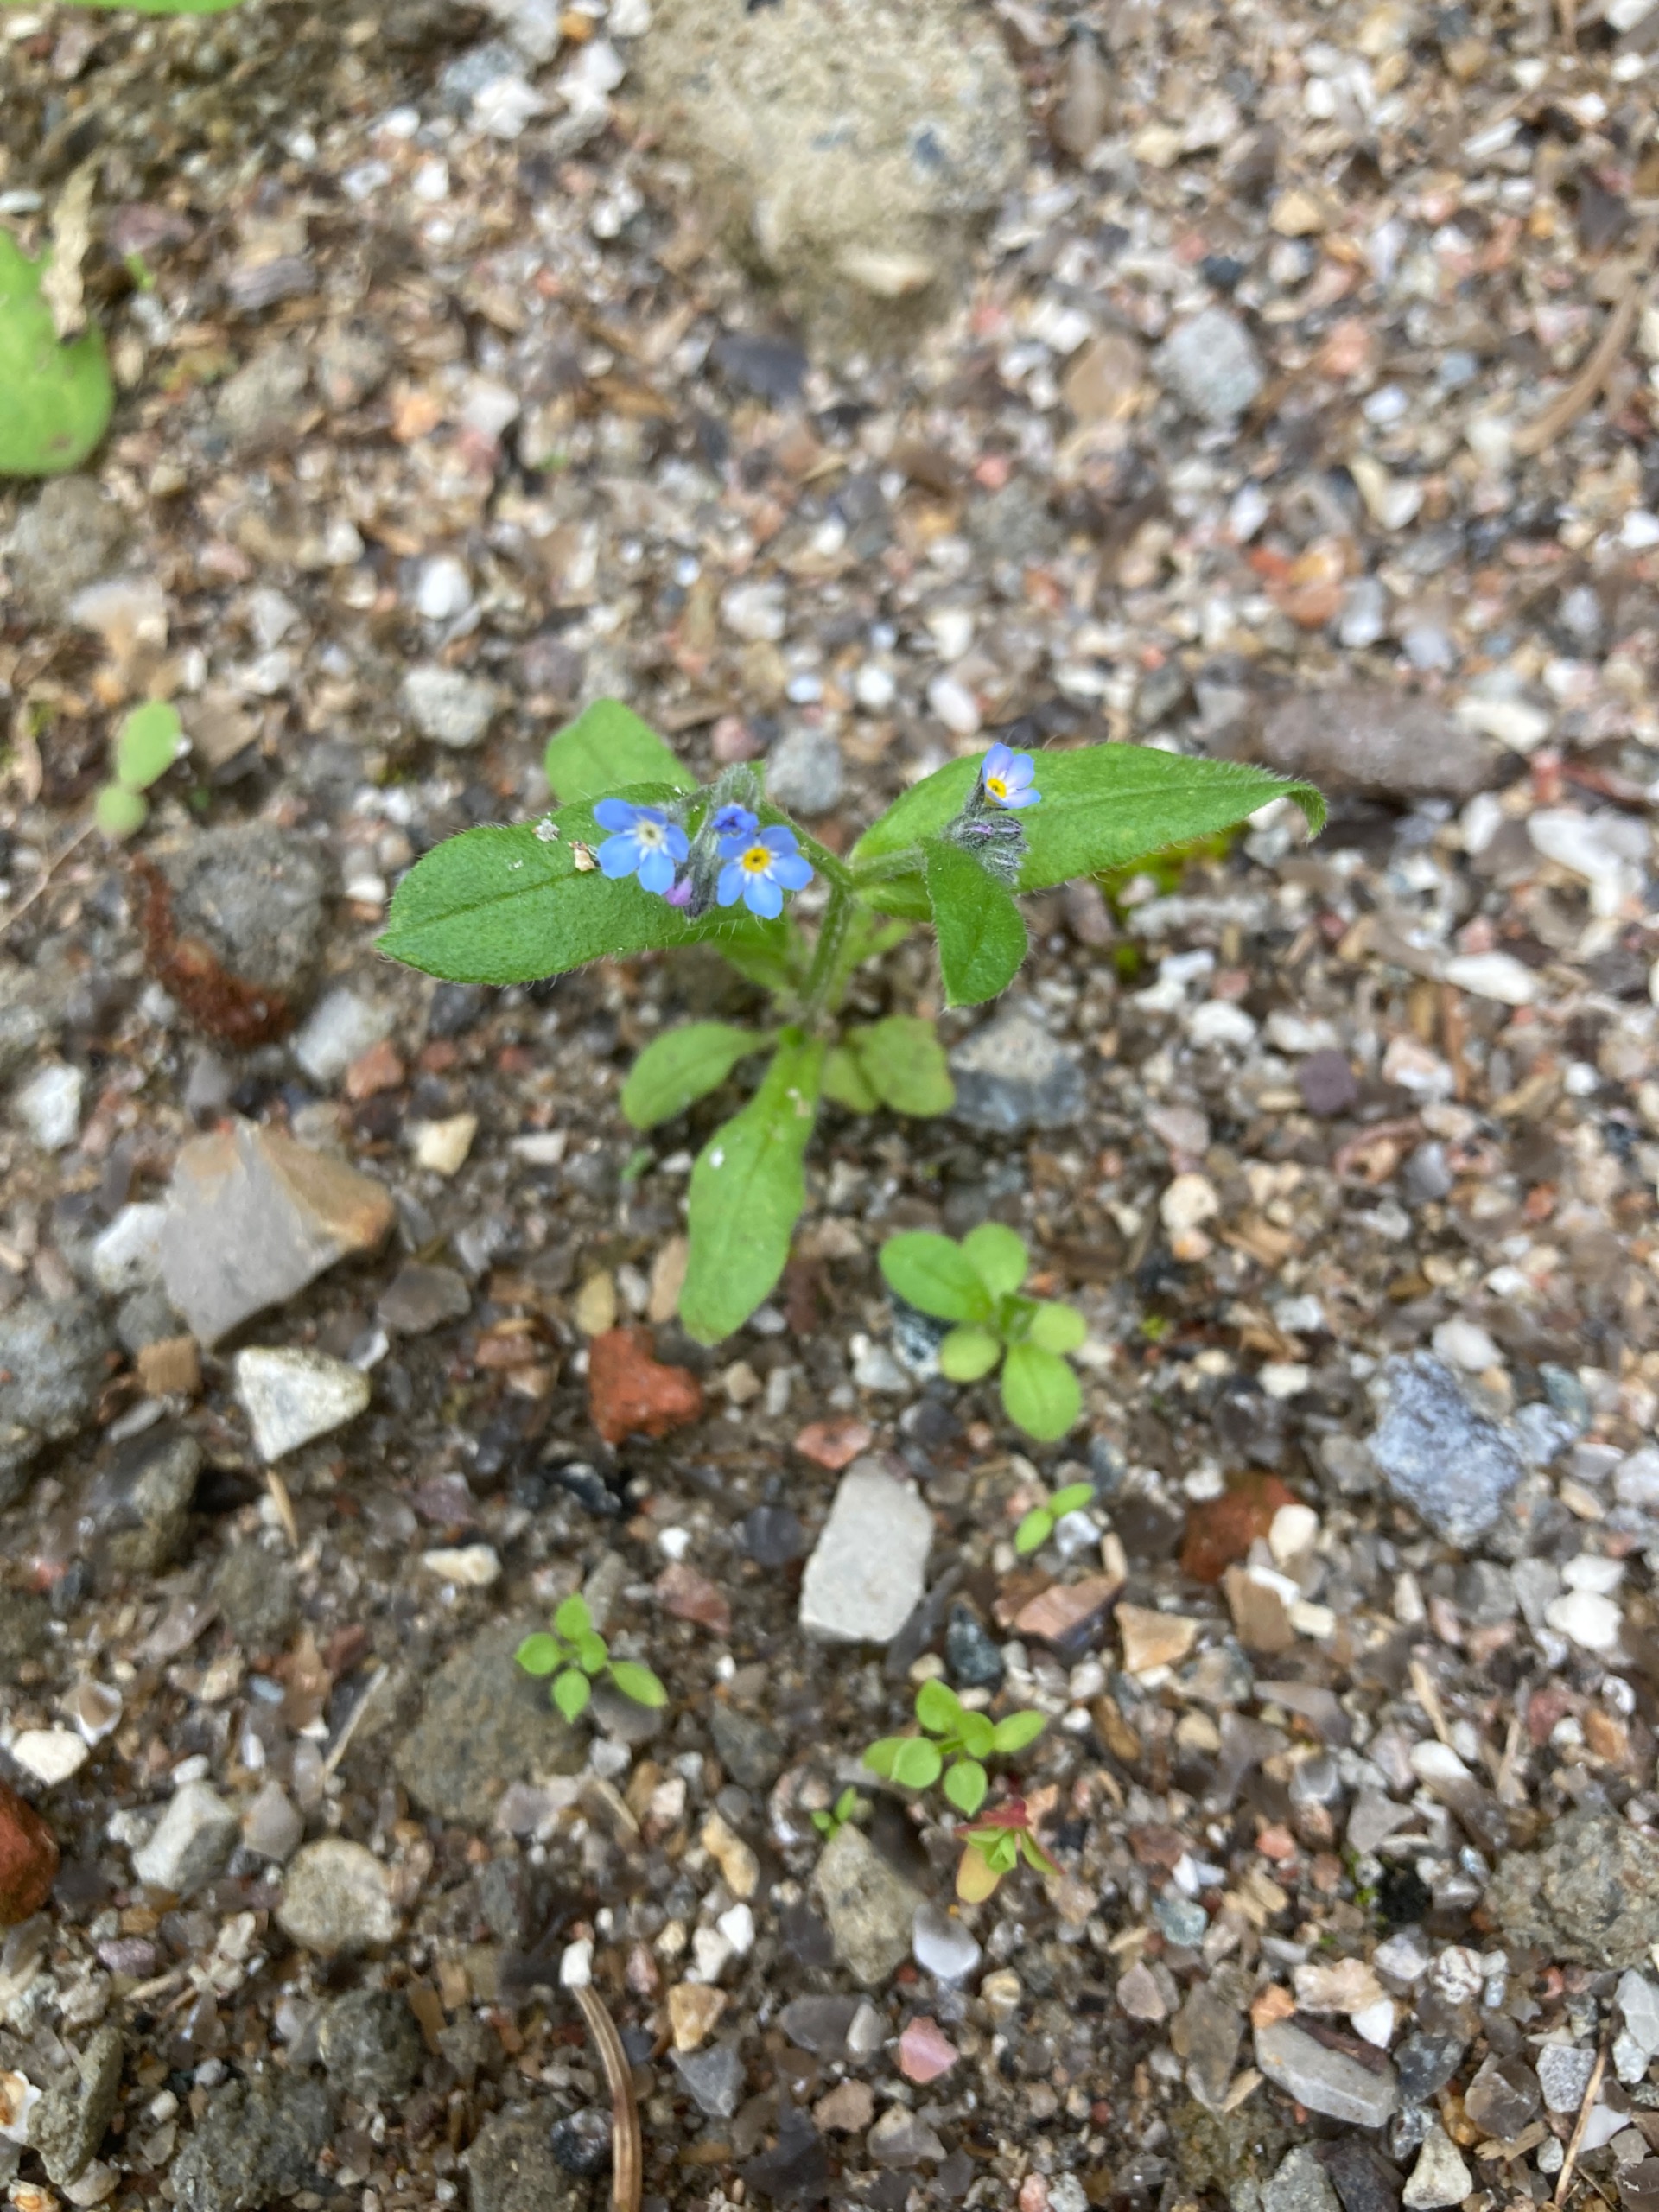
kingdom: Plantae
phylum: Tracheophyta
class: Magnoliopsida
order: Boraginales
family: Boraginaceae
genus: Myosotis
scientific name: Myosotis arvensis
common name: Mark-forglemmigej
